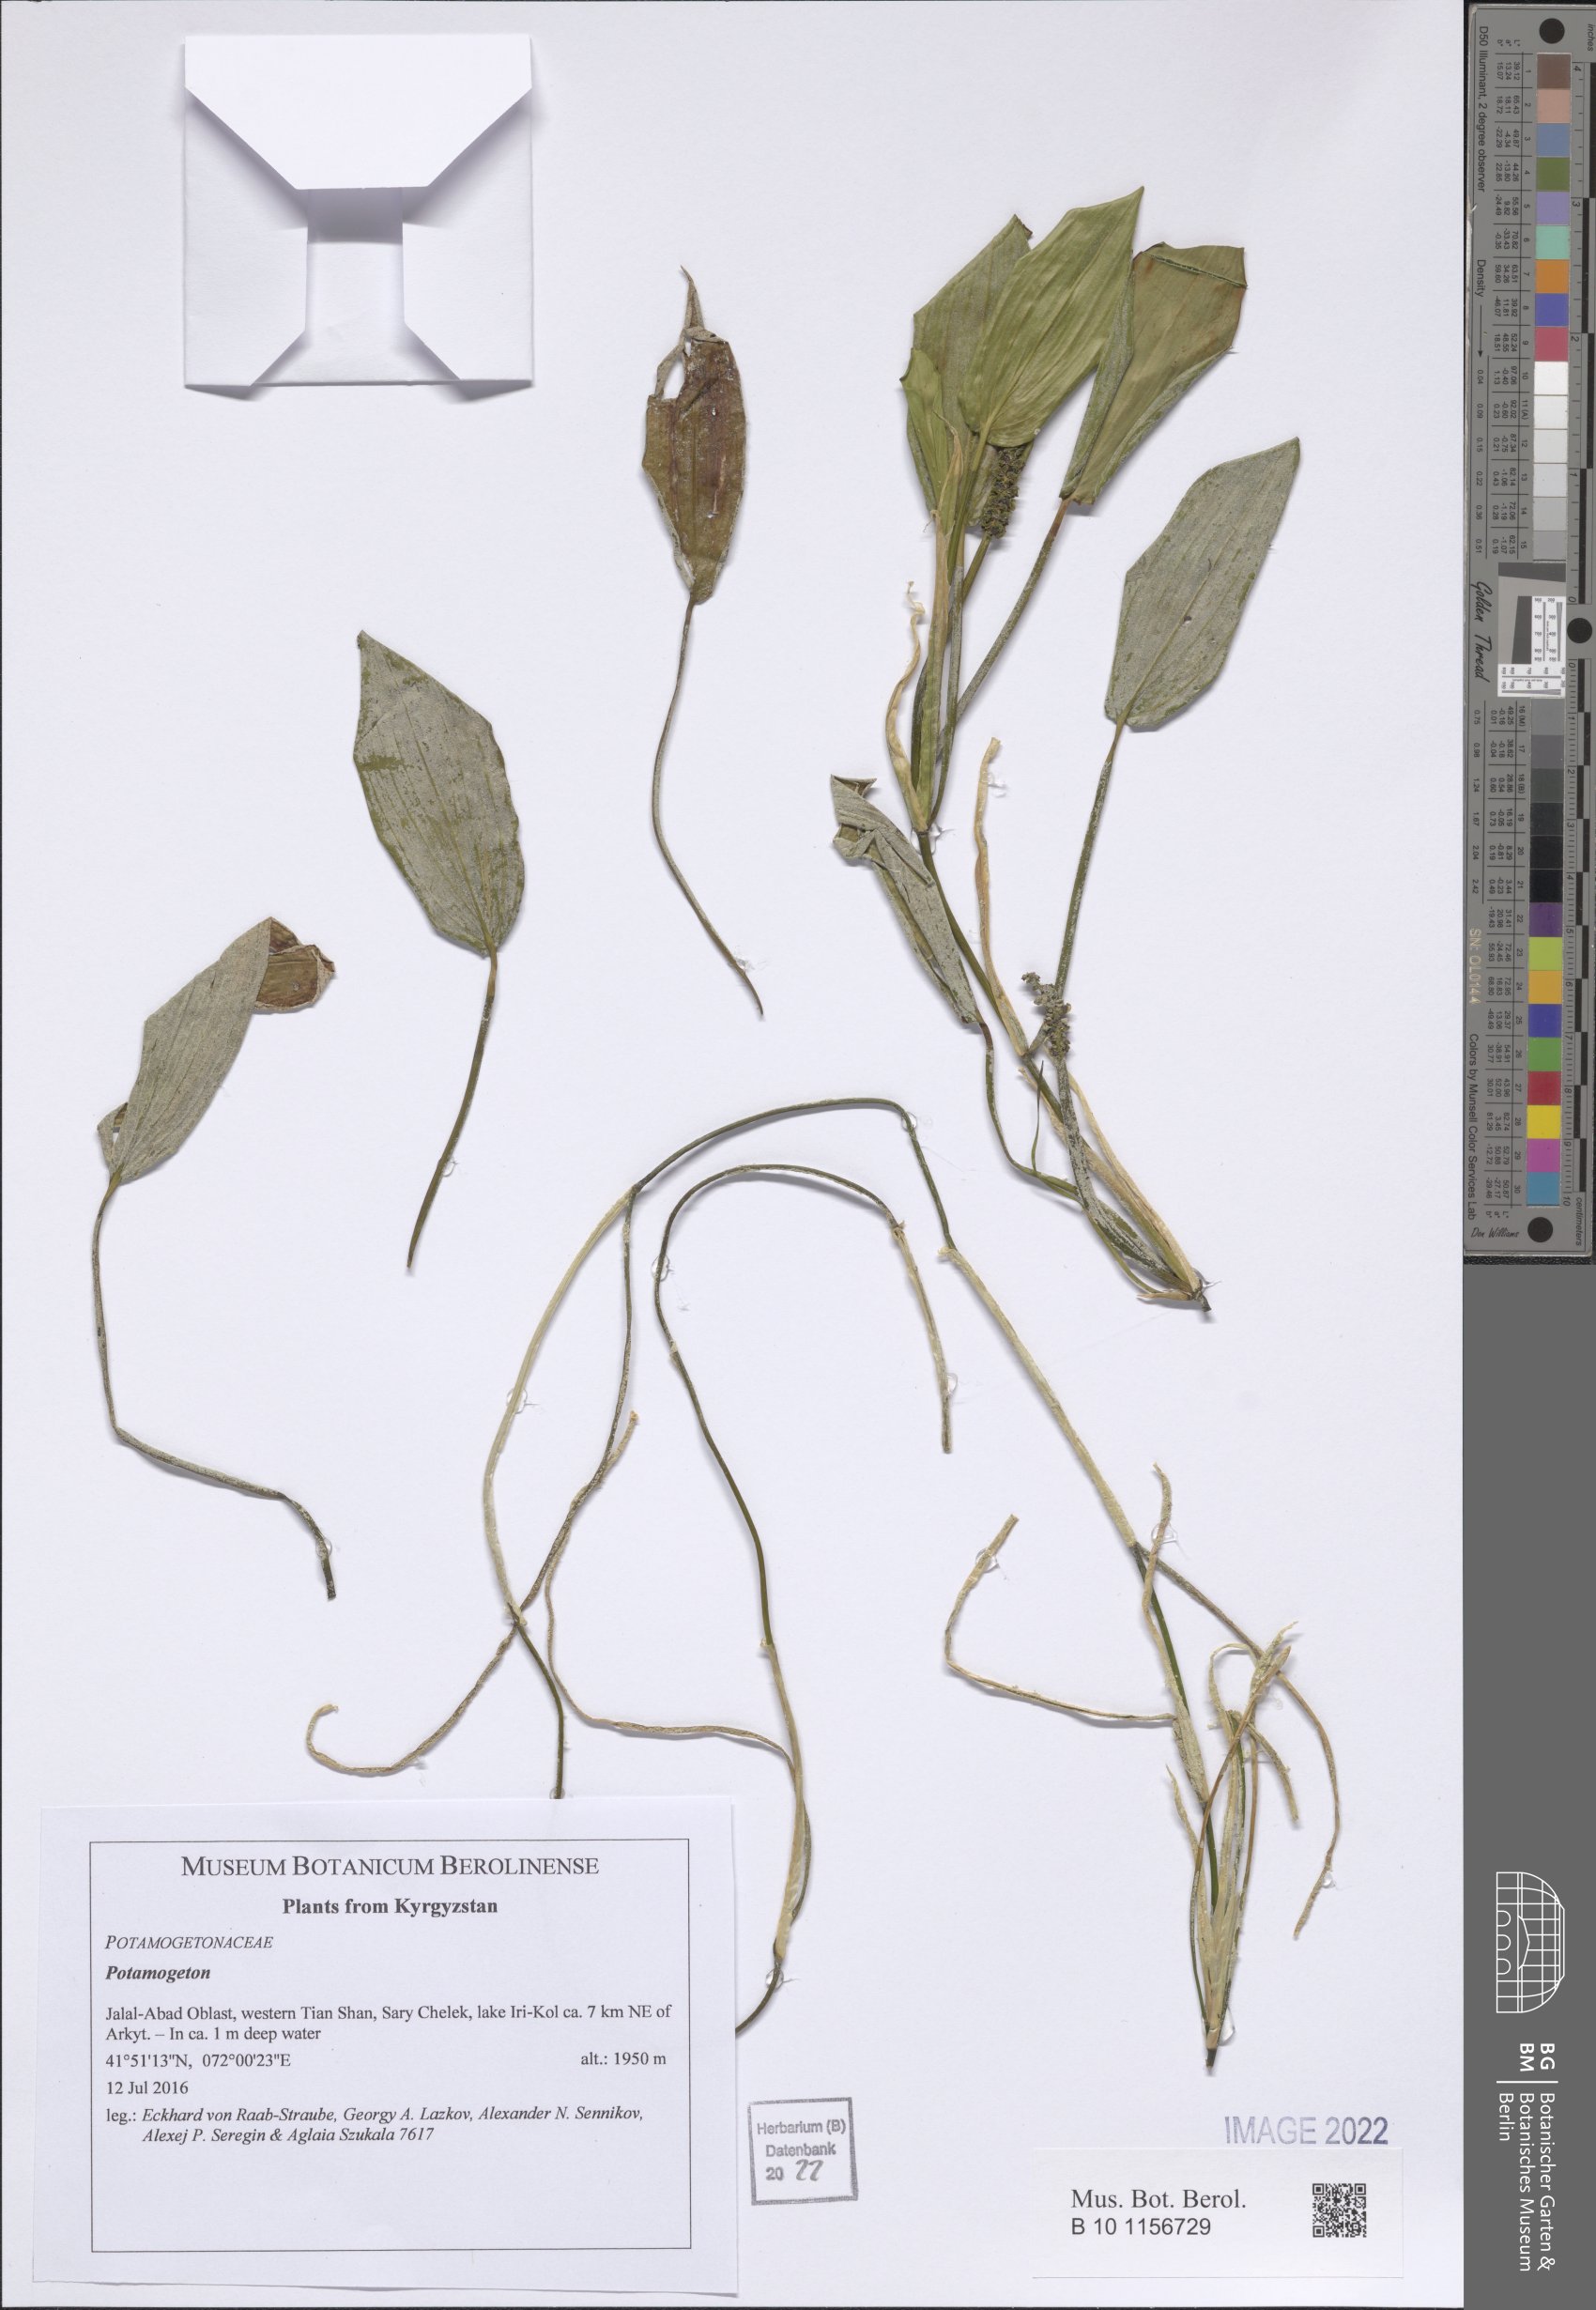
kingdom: Plantae
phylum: Tracheophyta
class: Liliopsida
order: Alismatales
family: Potamogetonaceae
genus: Potamogeton
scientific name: Potamogeton
